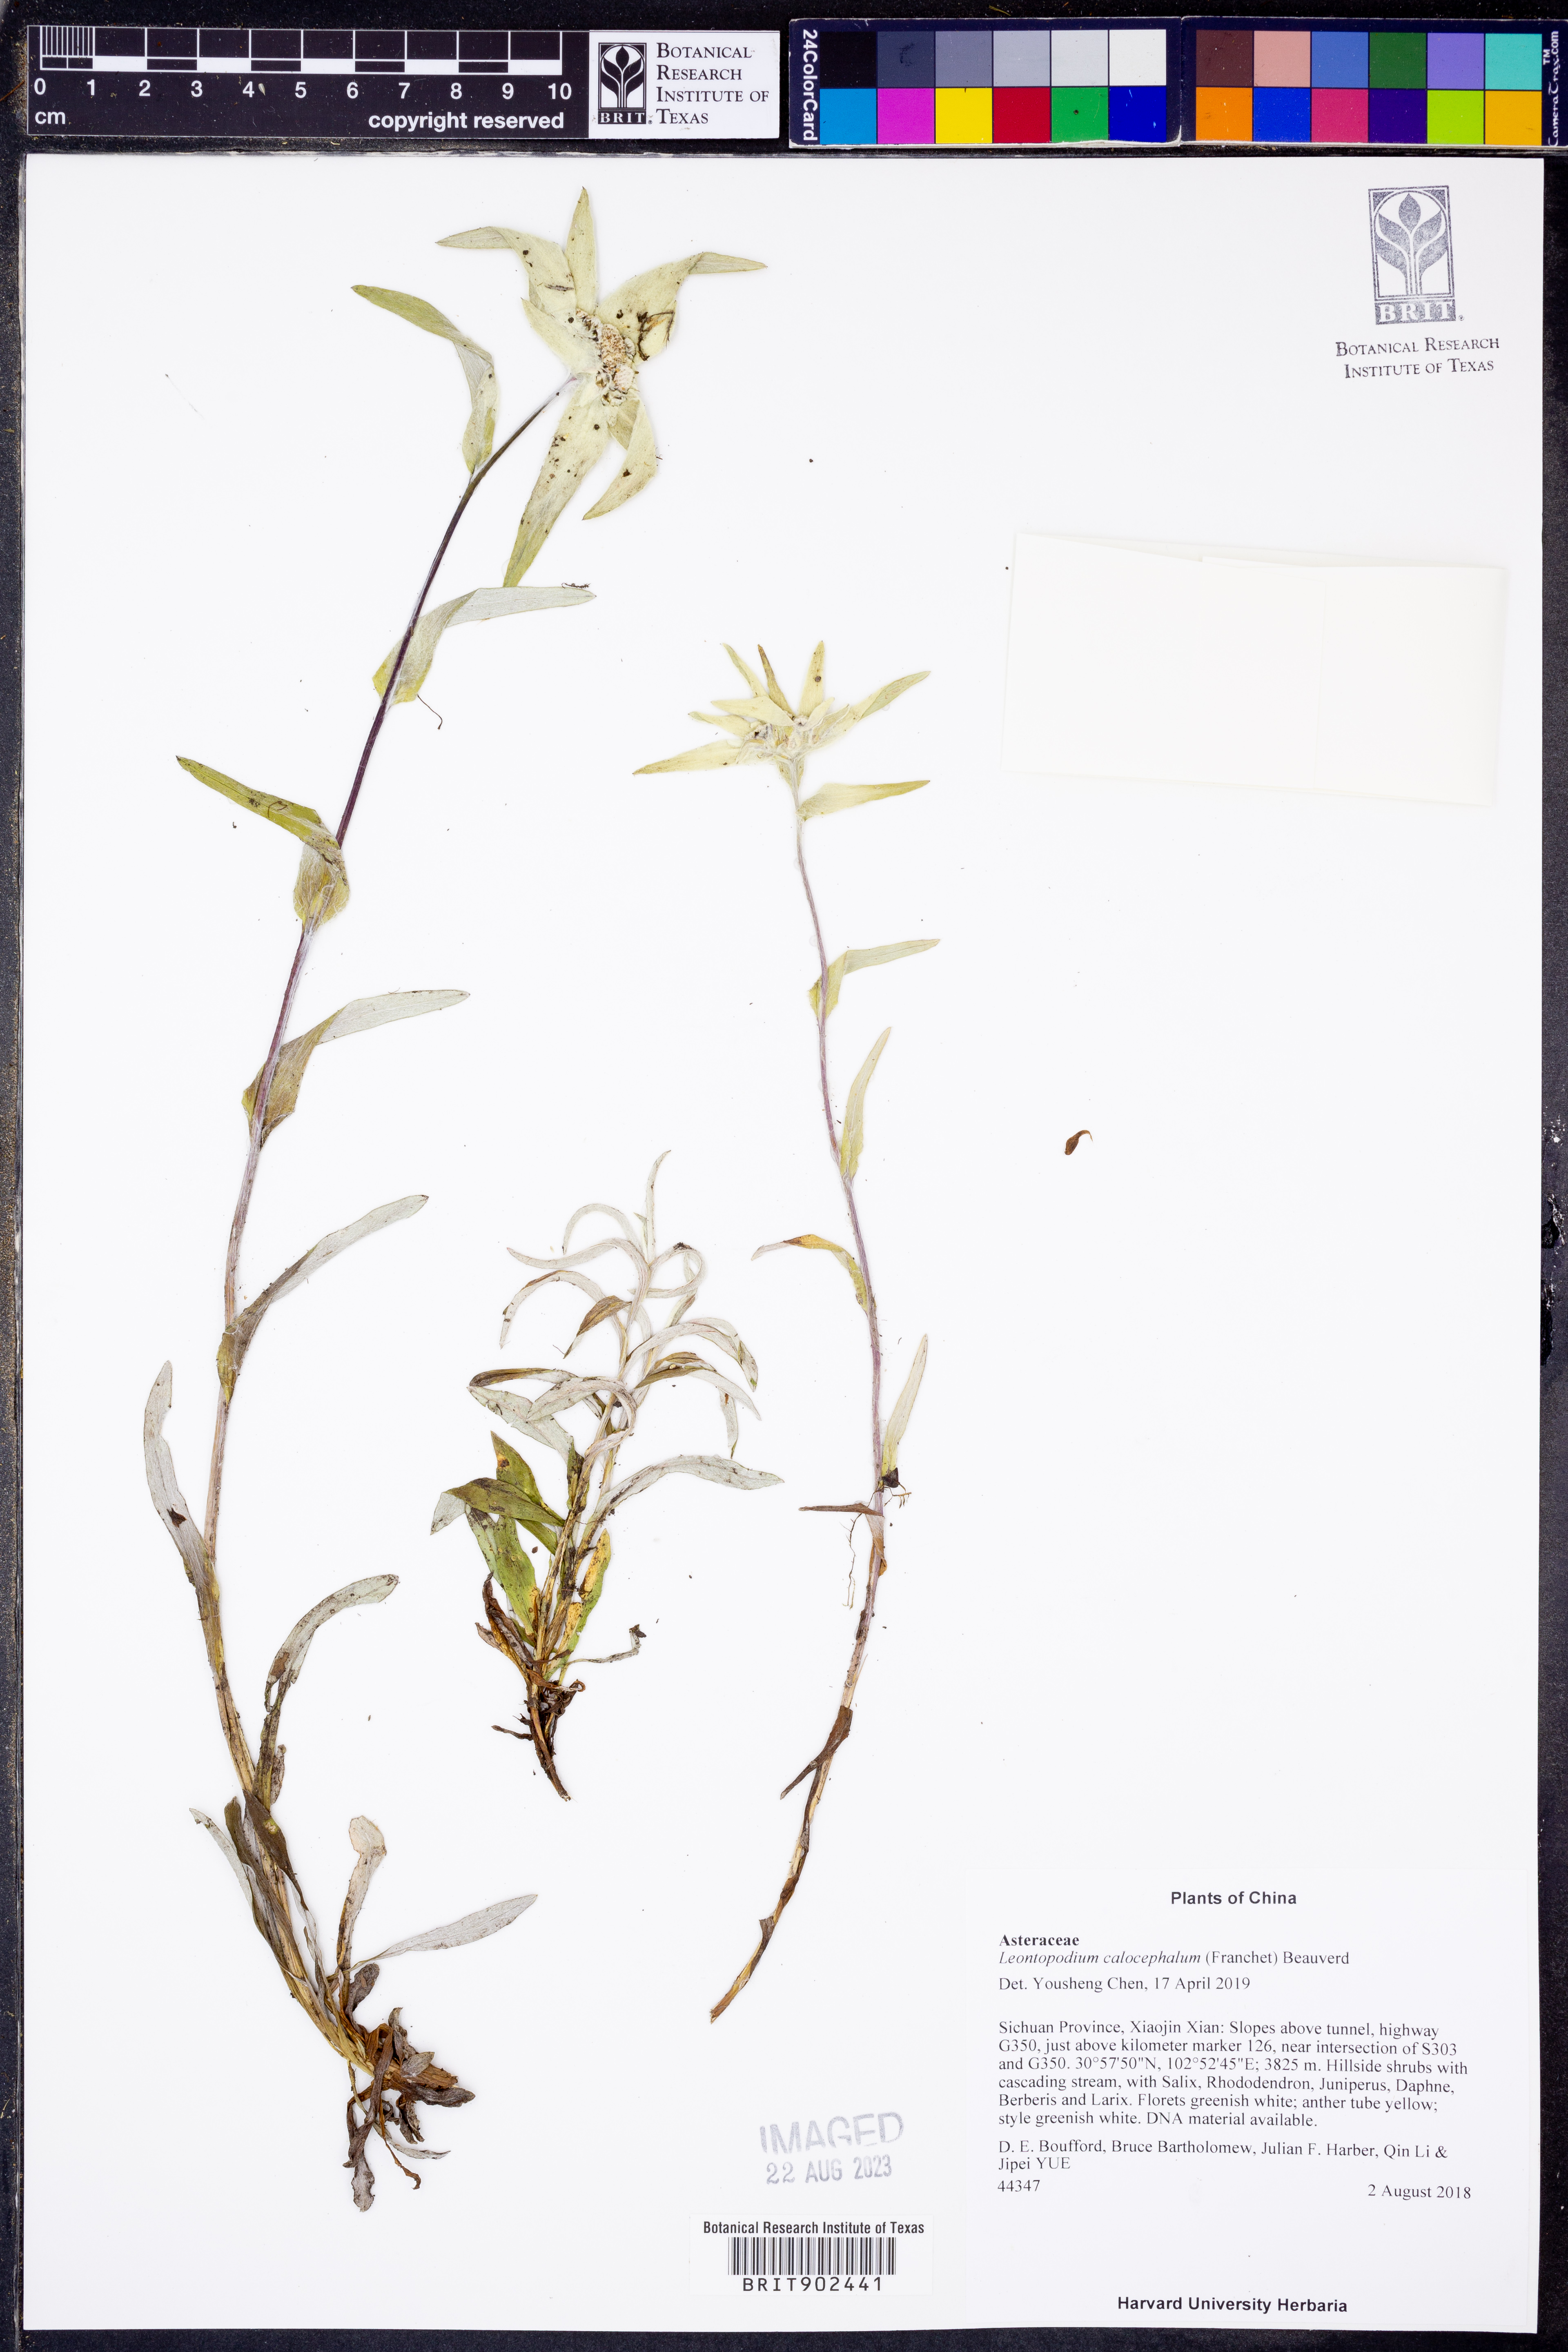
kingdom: Plantae
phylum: Tracheophyta
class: Magnoliopsida
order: Asterales
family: Asteraceae
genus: Leontopodium
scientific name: Leontopodium
